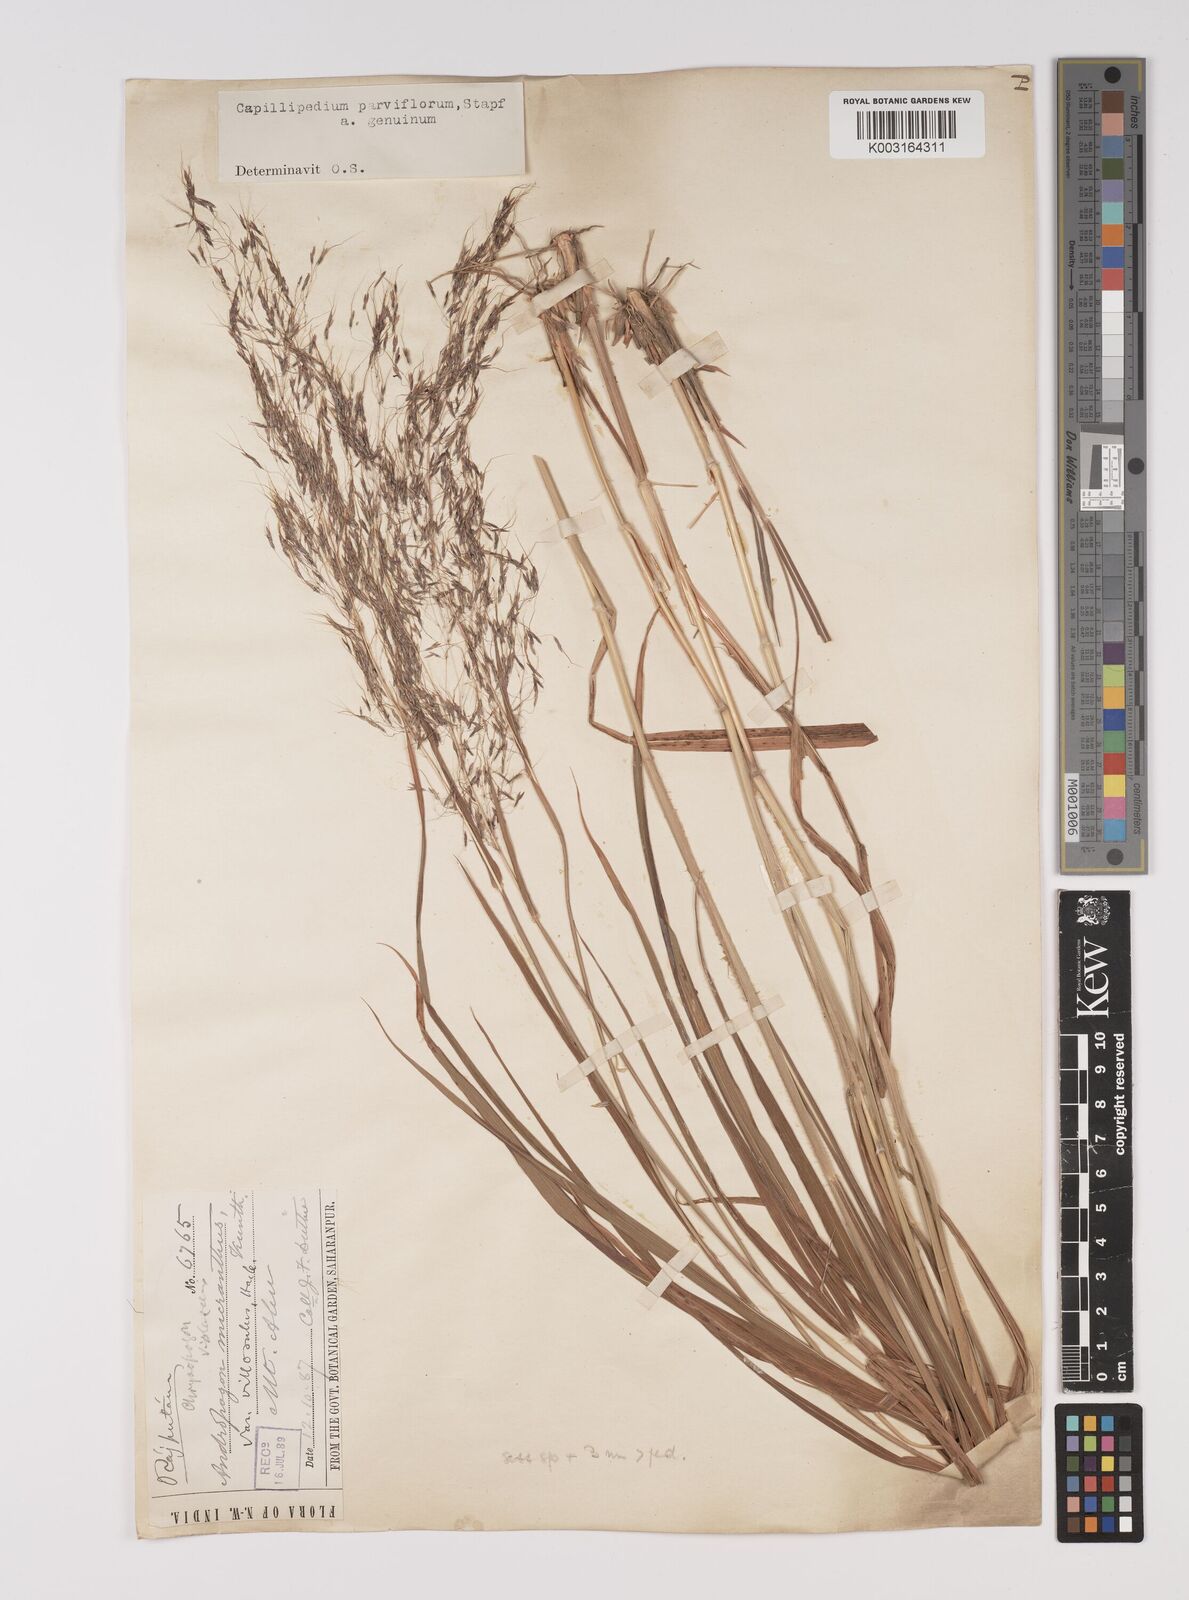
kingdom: Plantae
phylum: Tracheophyta
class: Liliopsida
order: Poales
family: Poaceae
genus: Capillipedium
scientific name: Capillipedium parviflorum
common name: Golden-beard
